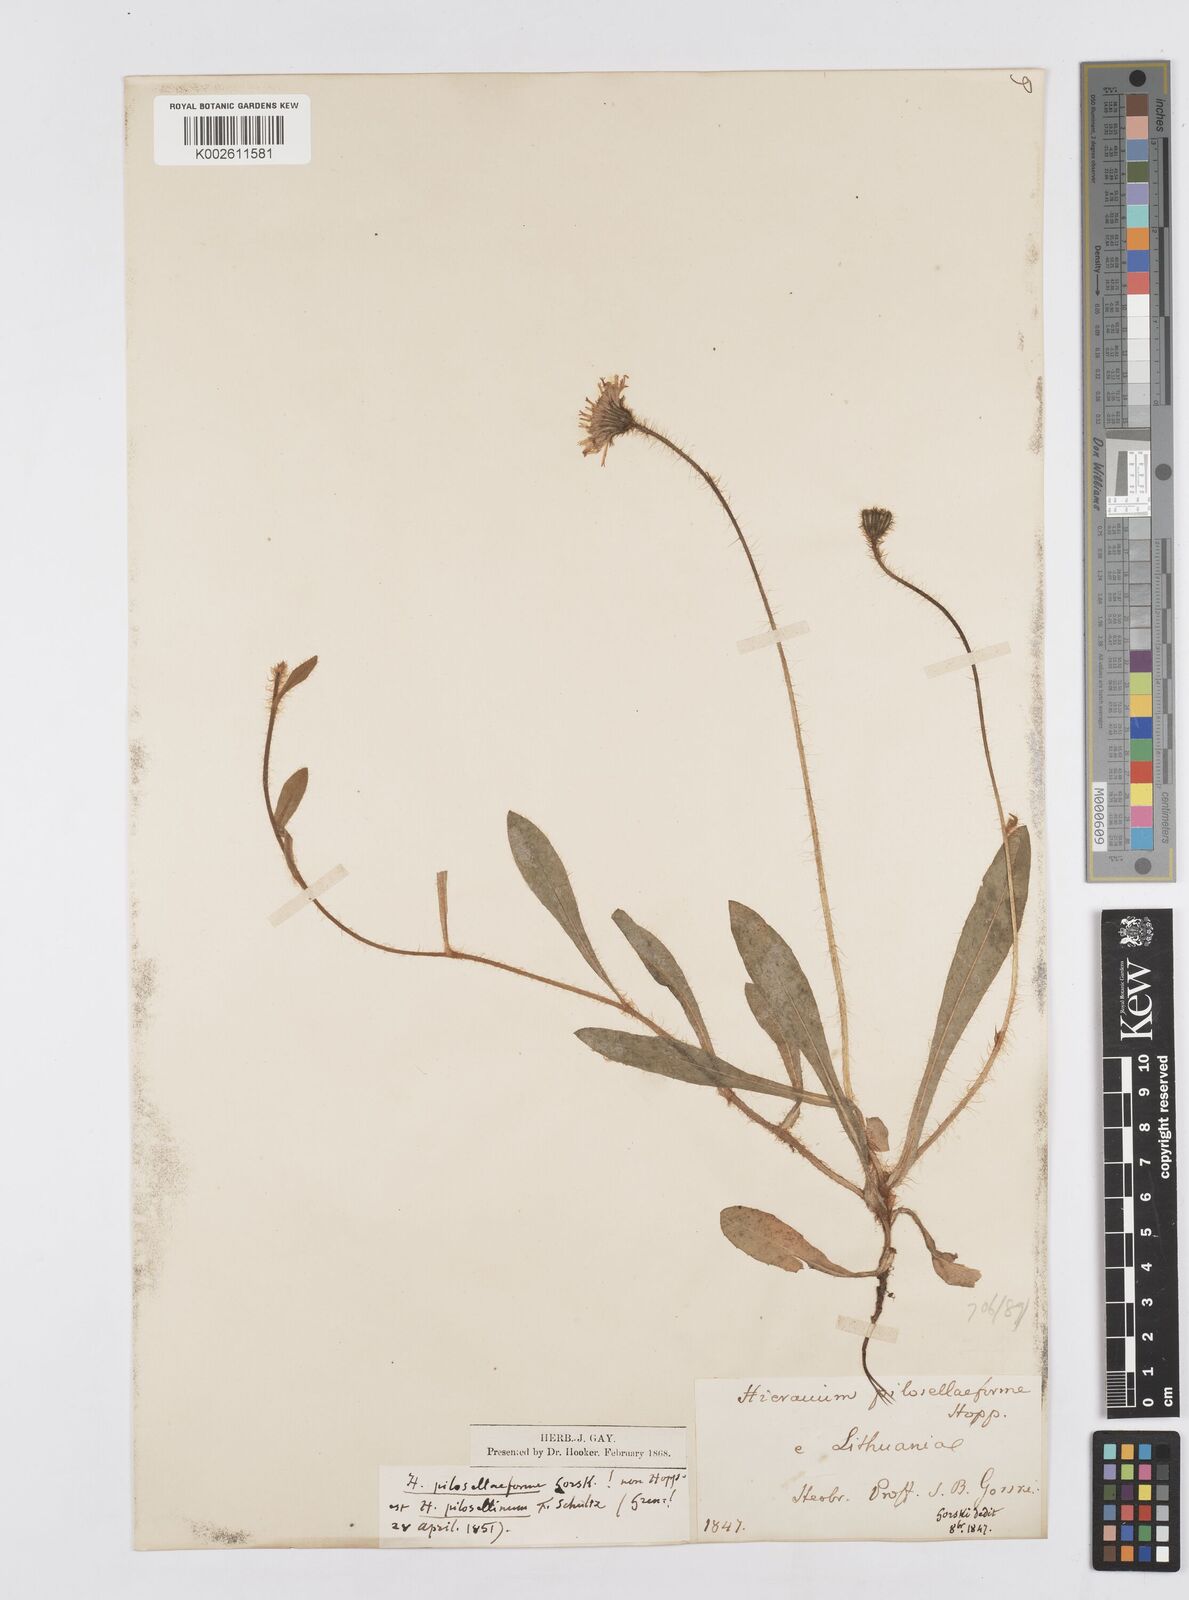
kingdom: Plantae
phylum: Tracheophyta
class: Magnoliopsida
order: Asterales
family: Asteraceae
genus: Pilosella
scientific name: Pilosella acutifolia
